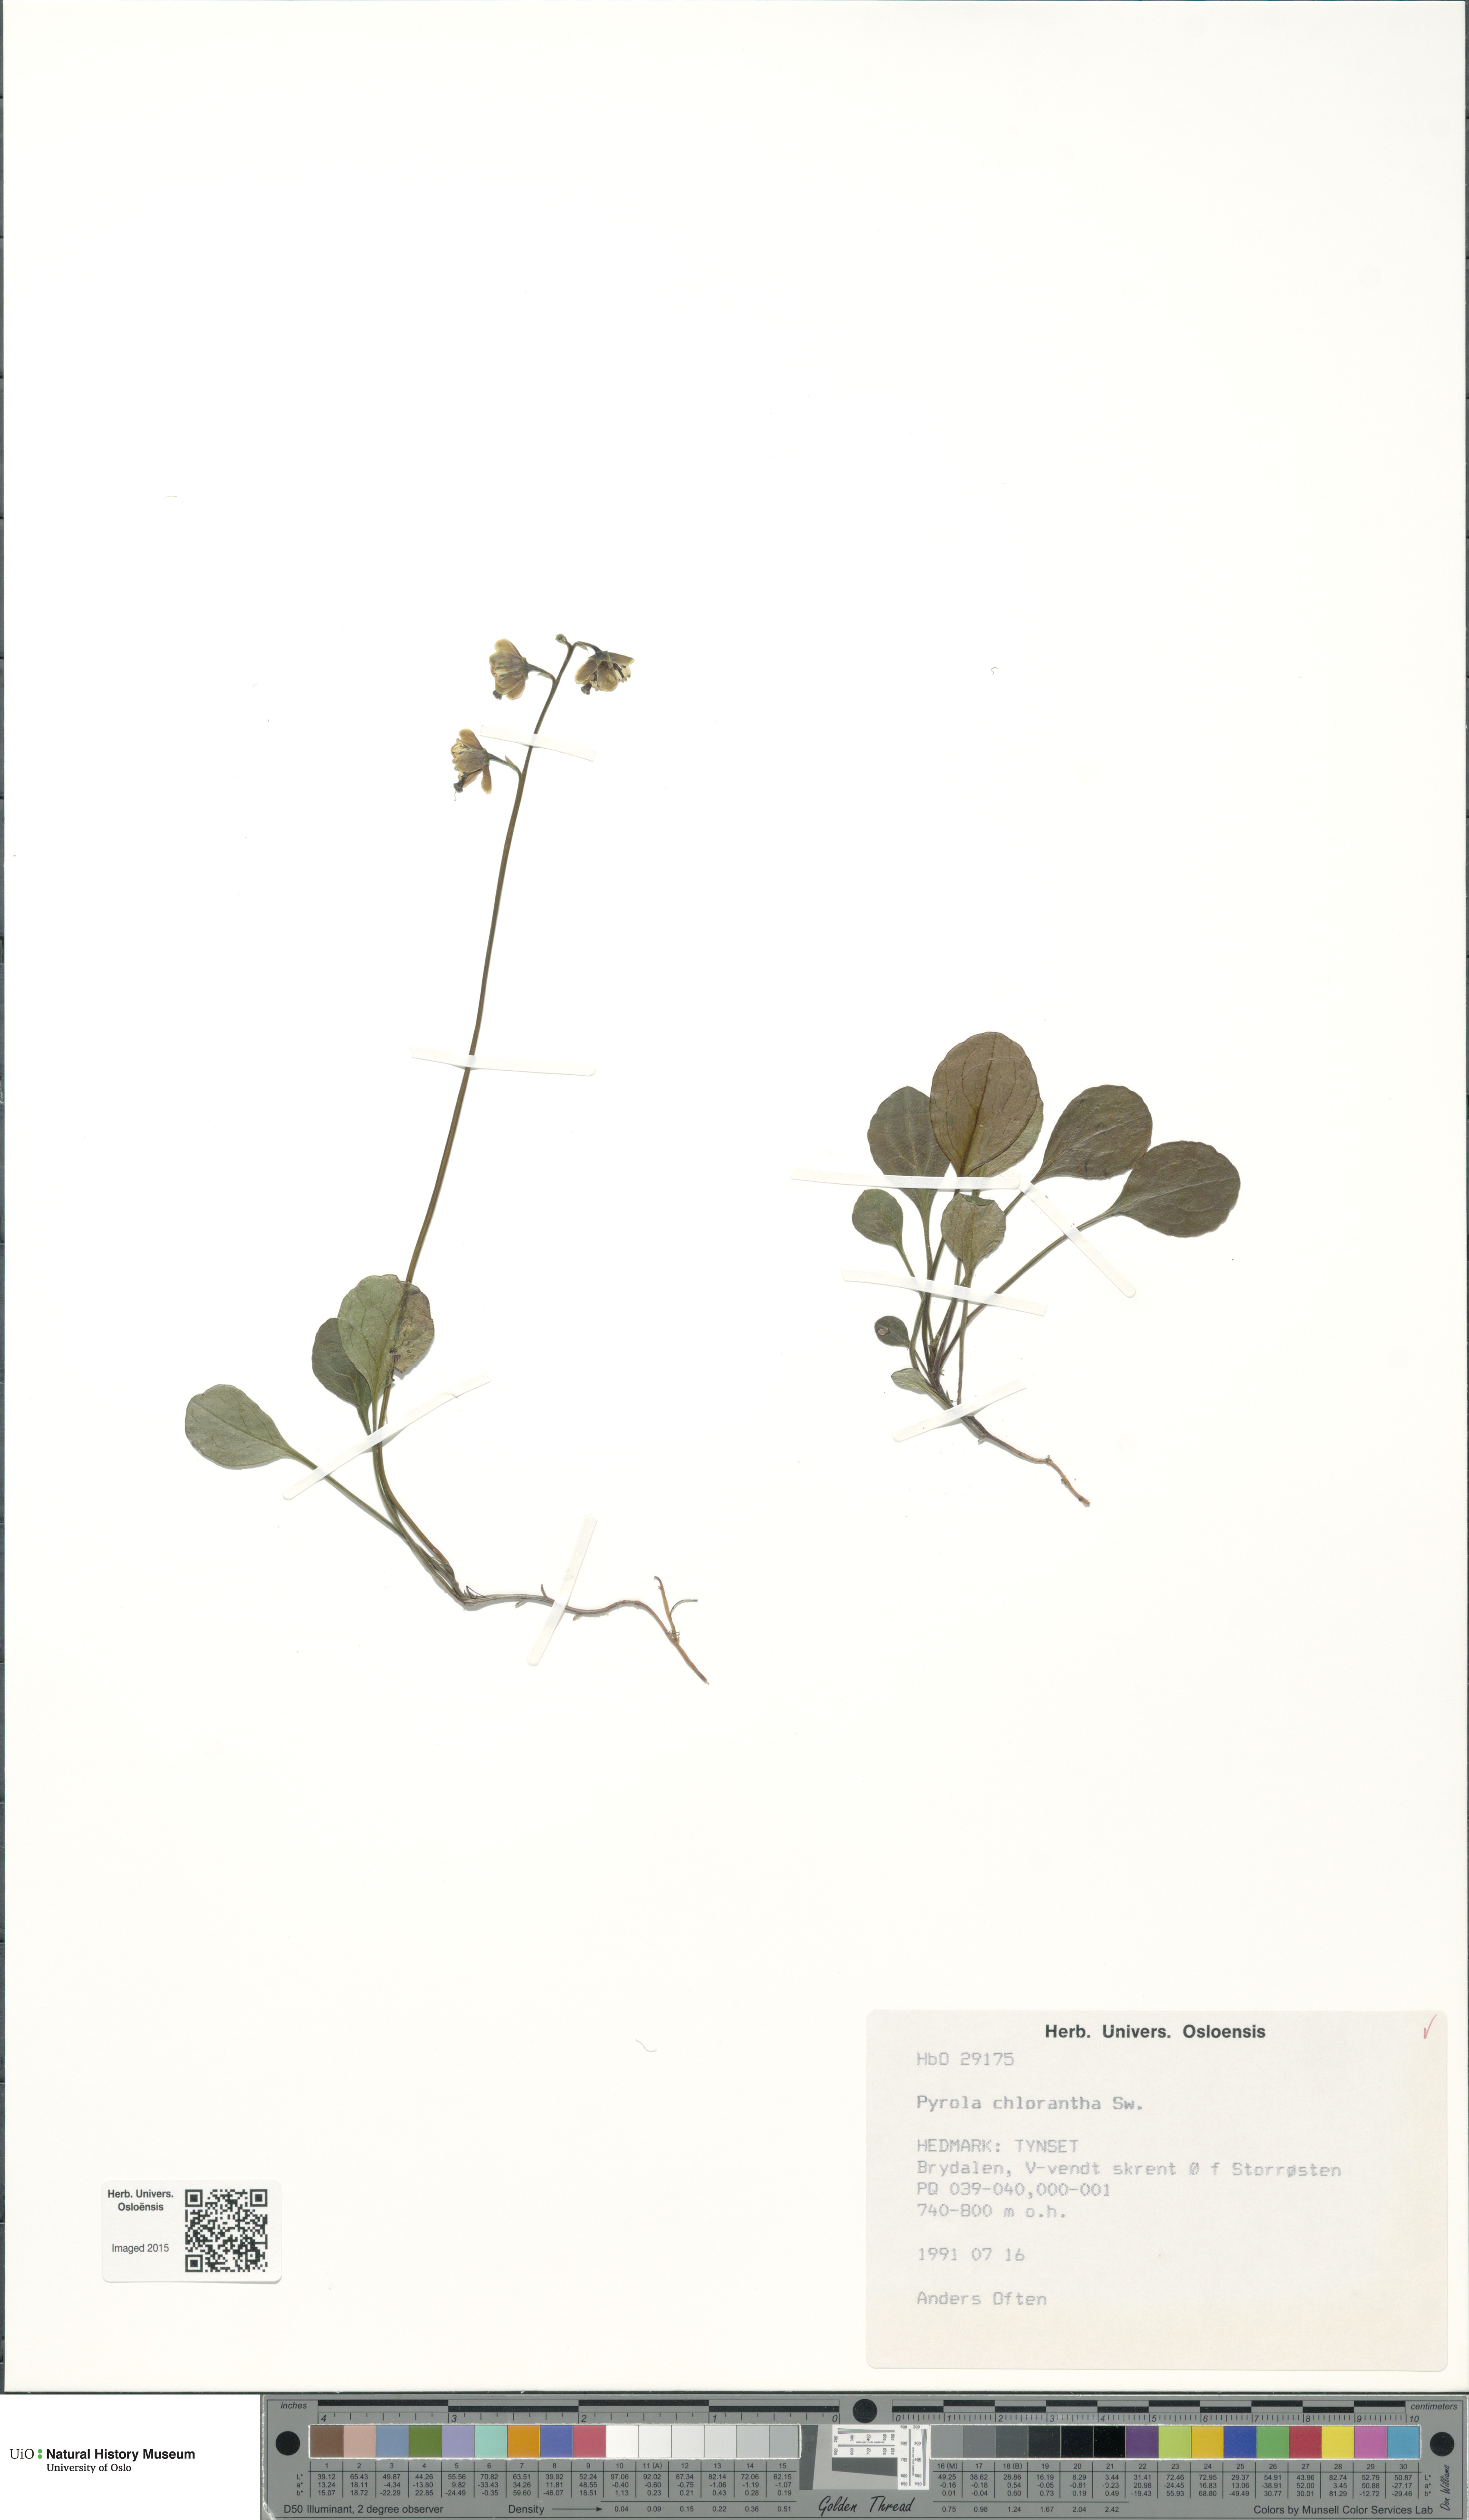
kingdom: Plantae
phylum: Tracheophyta
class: Magnoliopsida
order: Ericales
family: Ericaceae
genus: Pyrola
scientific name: Pyrola chlorantha
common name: Green wintergreen
